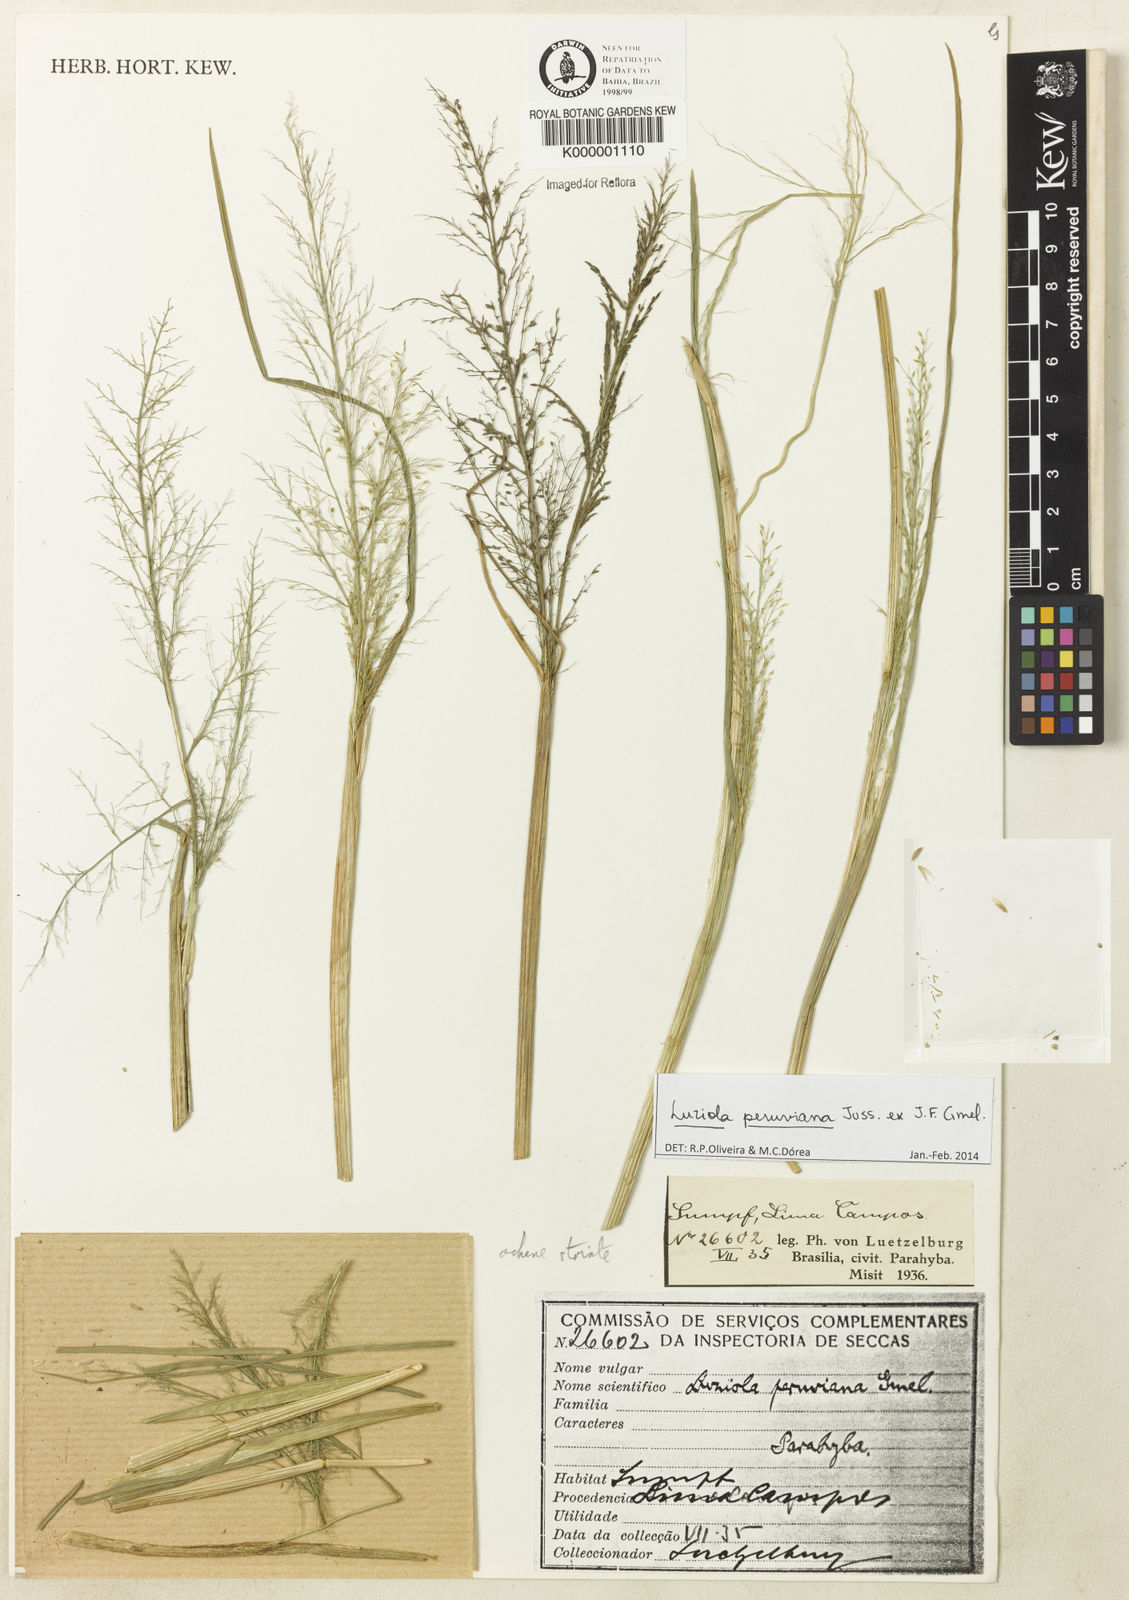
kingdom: Plantae
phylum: Tracheophyta
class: Liliopsida
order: Poales
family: Poaceae
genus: Luziola
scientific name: Luziola brasiliana
